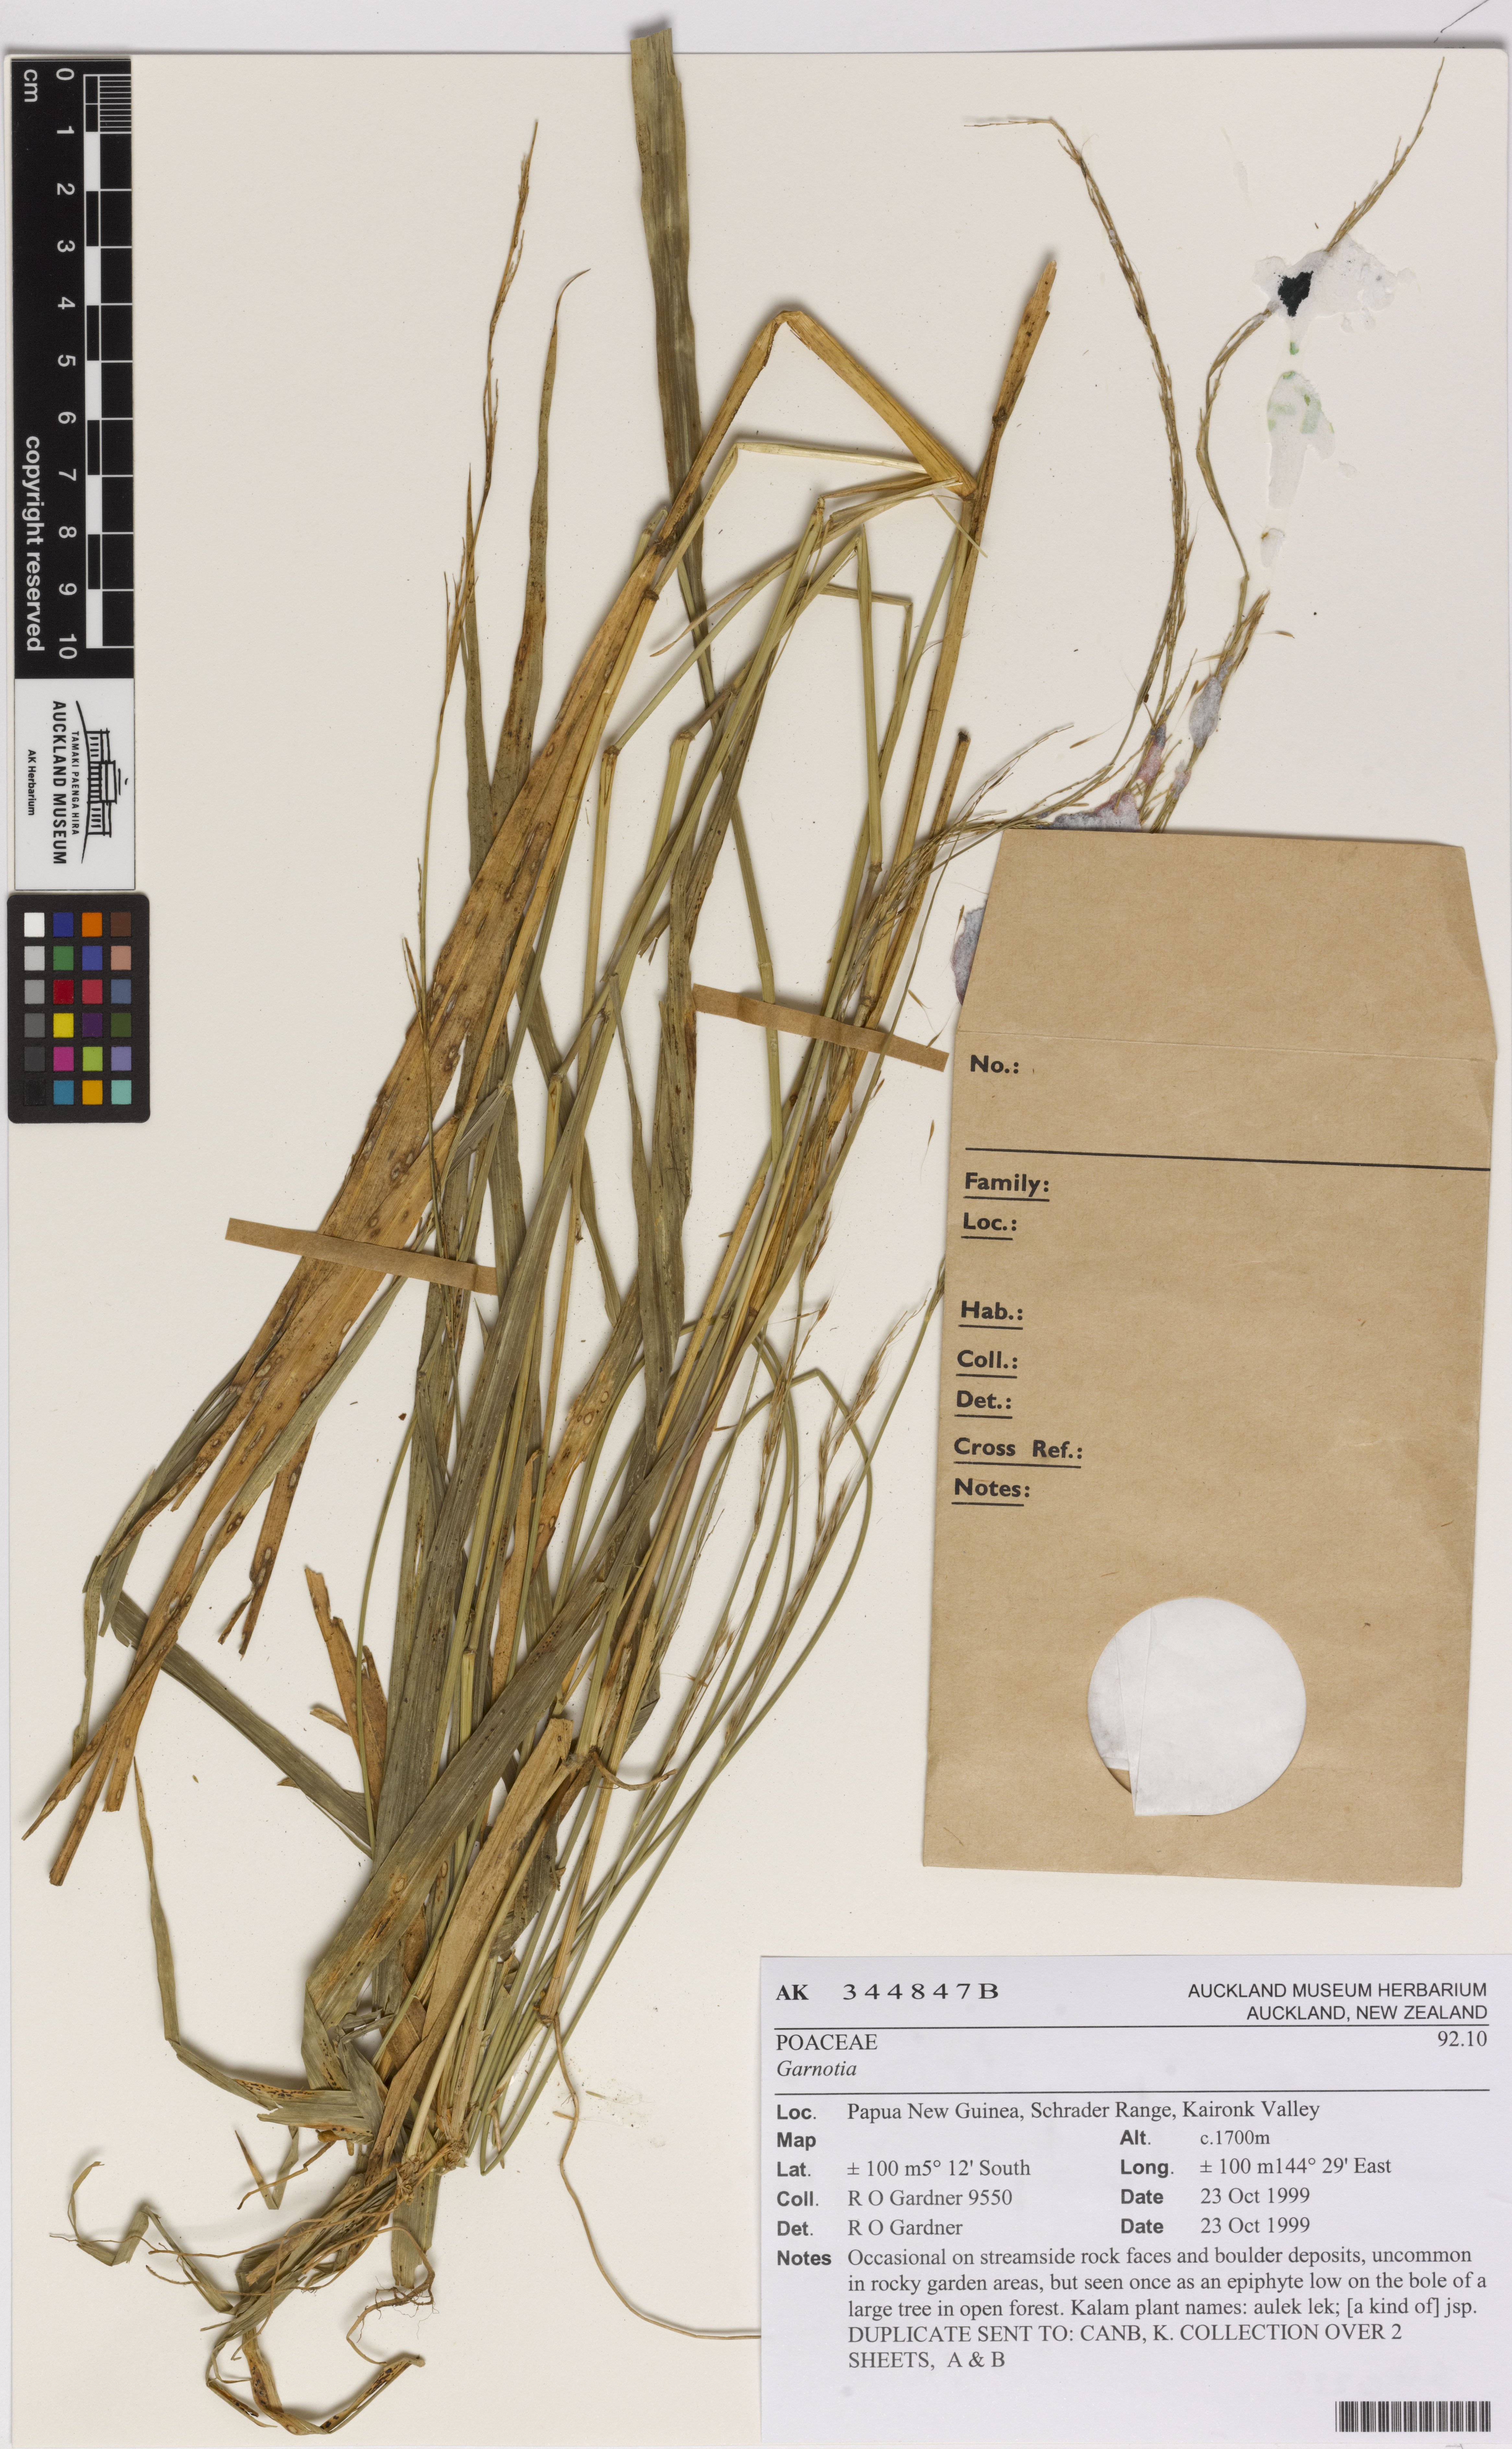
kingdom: Plantae
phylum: Tracheophyta
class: Liliopsida
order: Poales
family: Poaceae
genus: Garnotia
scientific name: Garnotia
